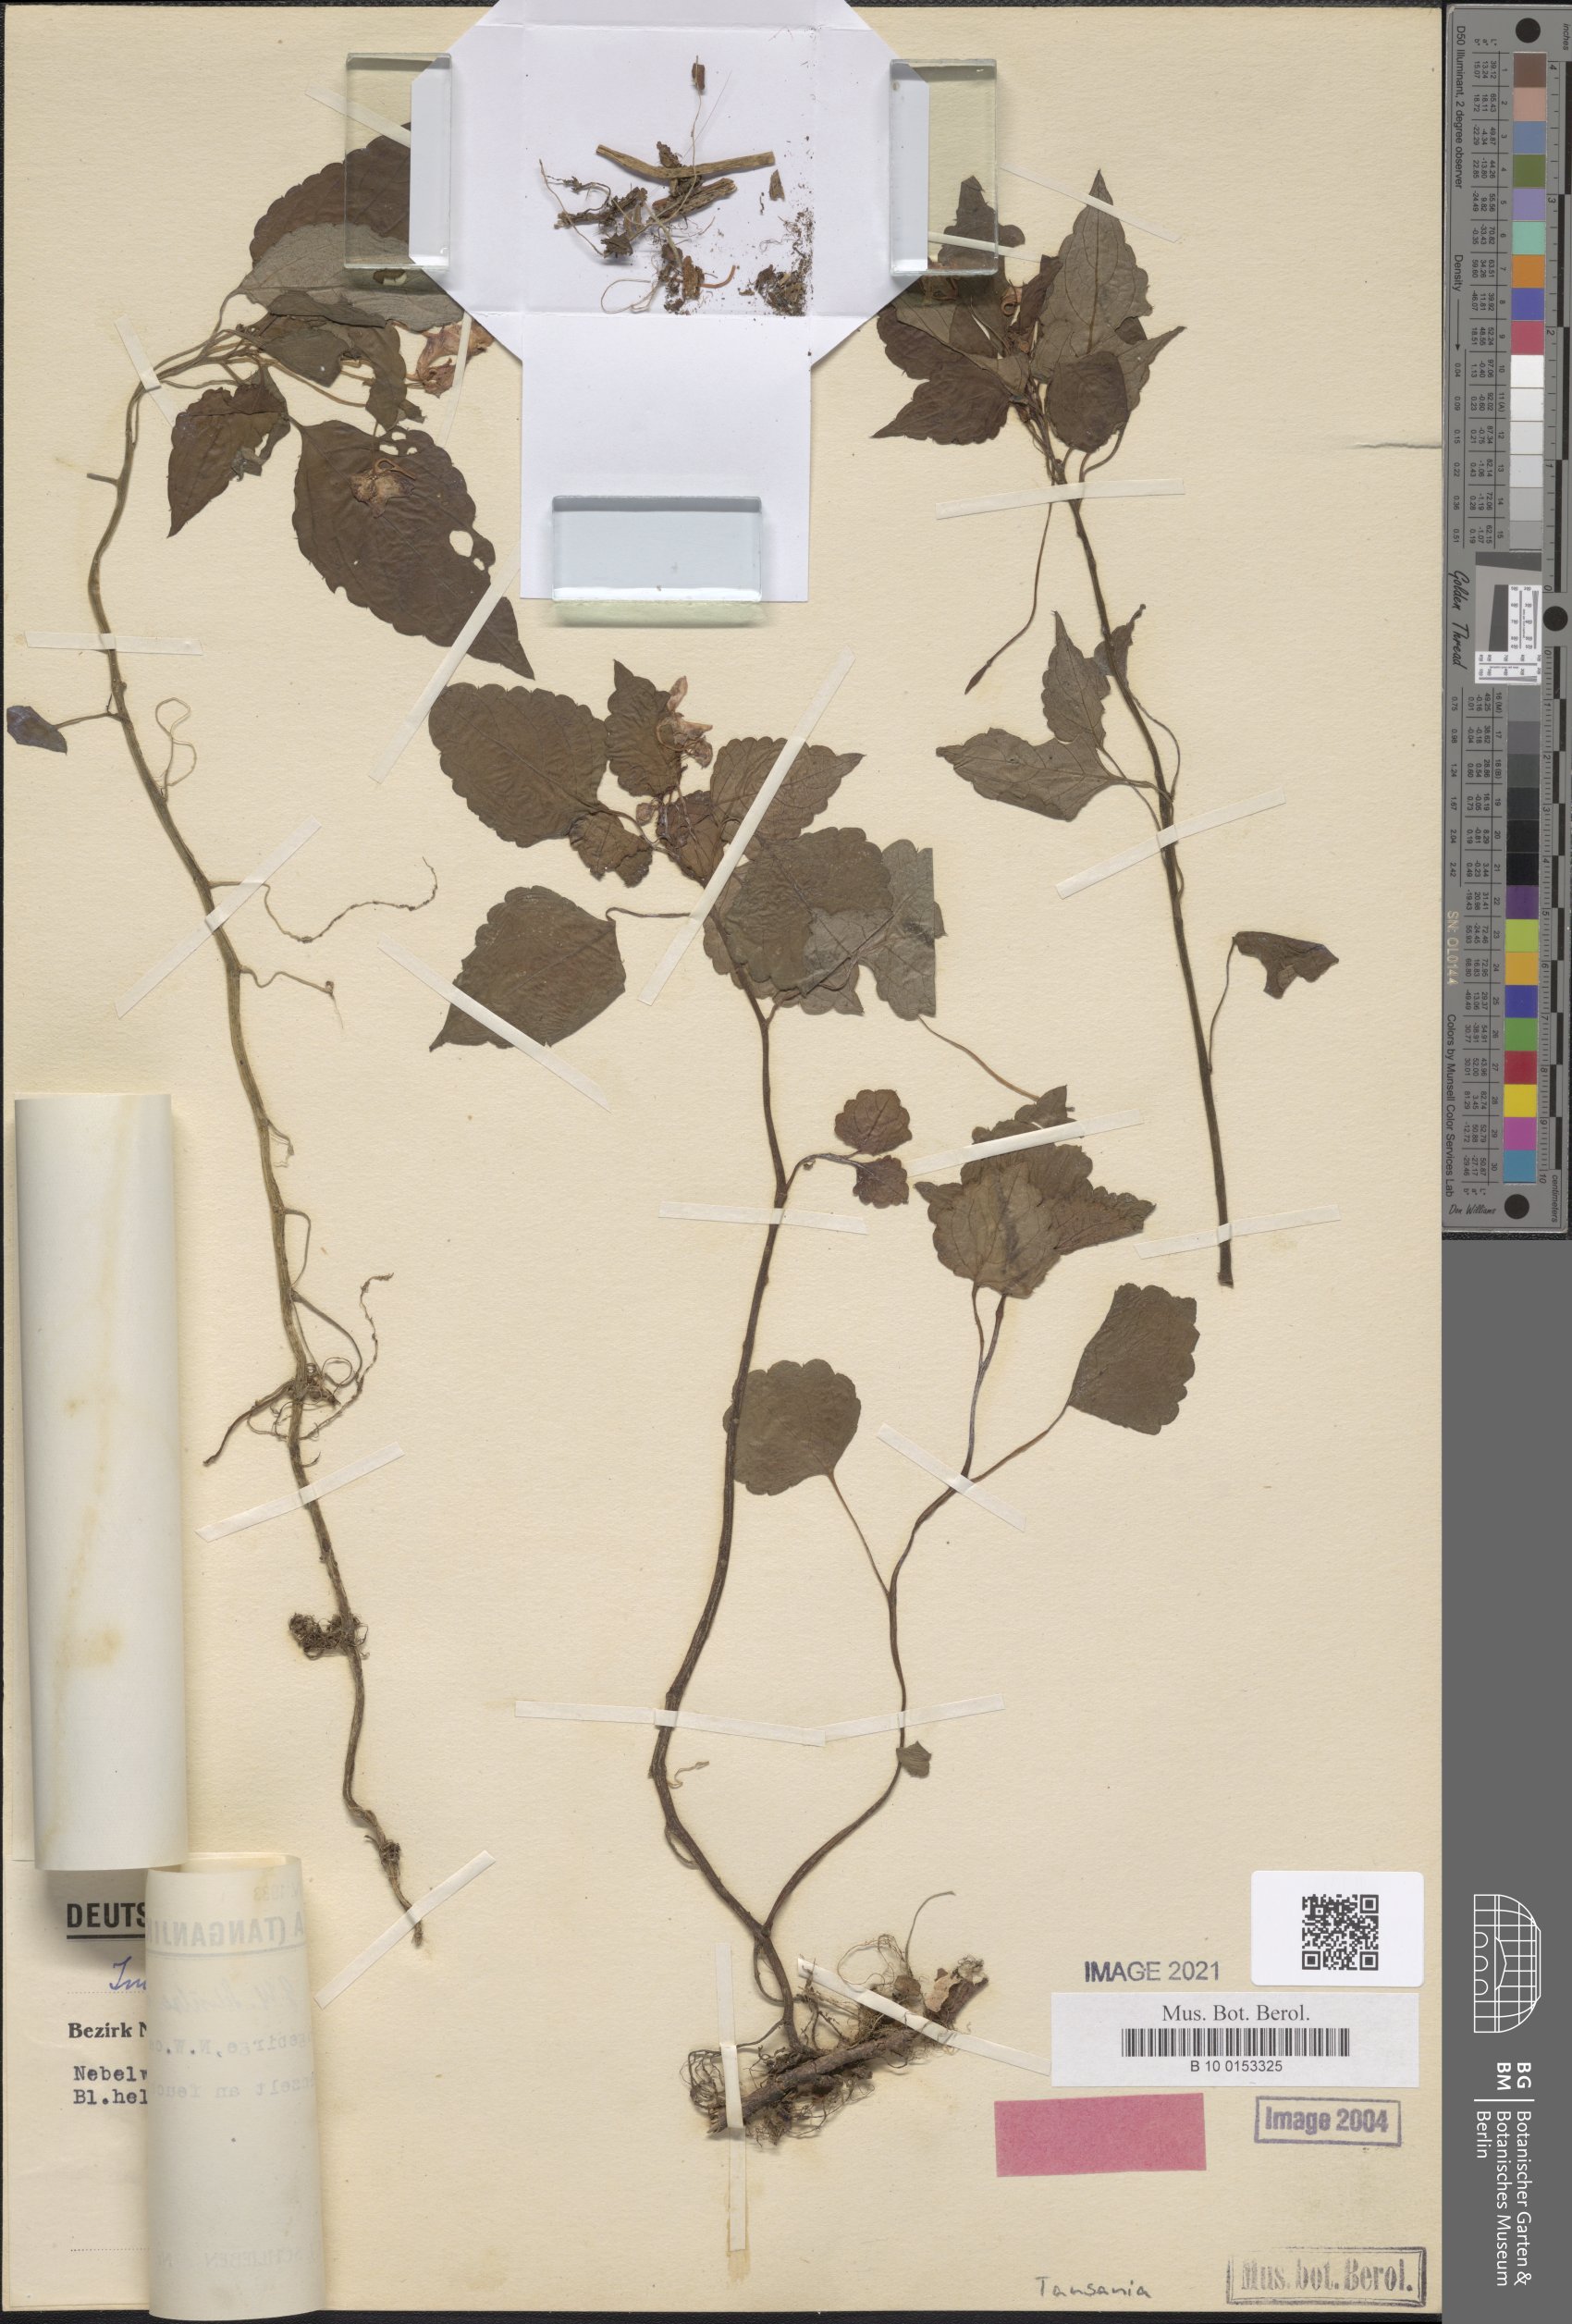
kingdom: Plantae
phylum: Tracheophyta
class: Magnoliopsida
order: Ericales
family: Balsaminaceae
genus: Impatiens
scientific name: Impatiens ioides
